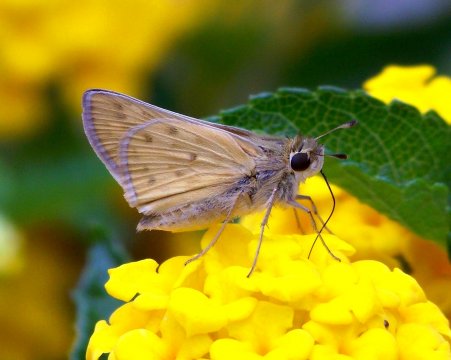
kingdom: Animalia
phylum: Arthropoda
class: Insecta
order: Lepidoptera
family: Hesperiidae
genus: Hylephila
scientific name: Hylephila phyleus
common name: Fiery Skipper
